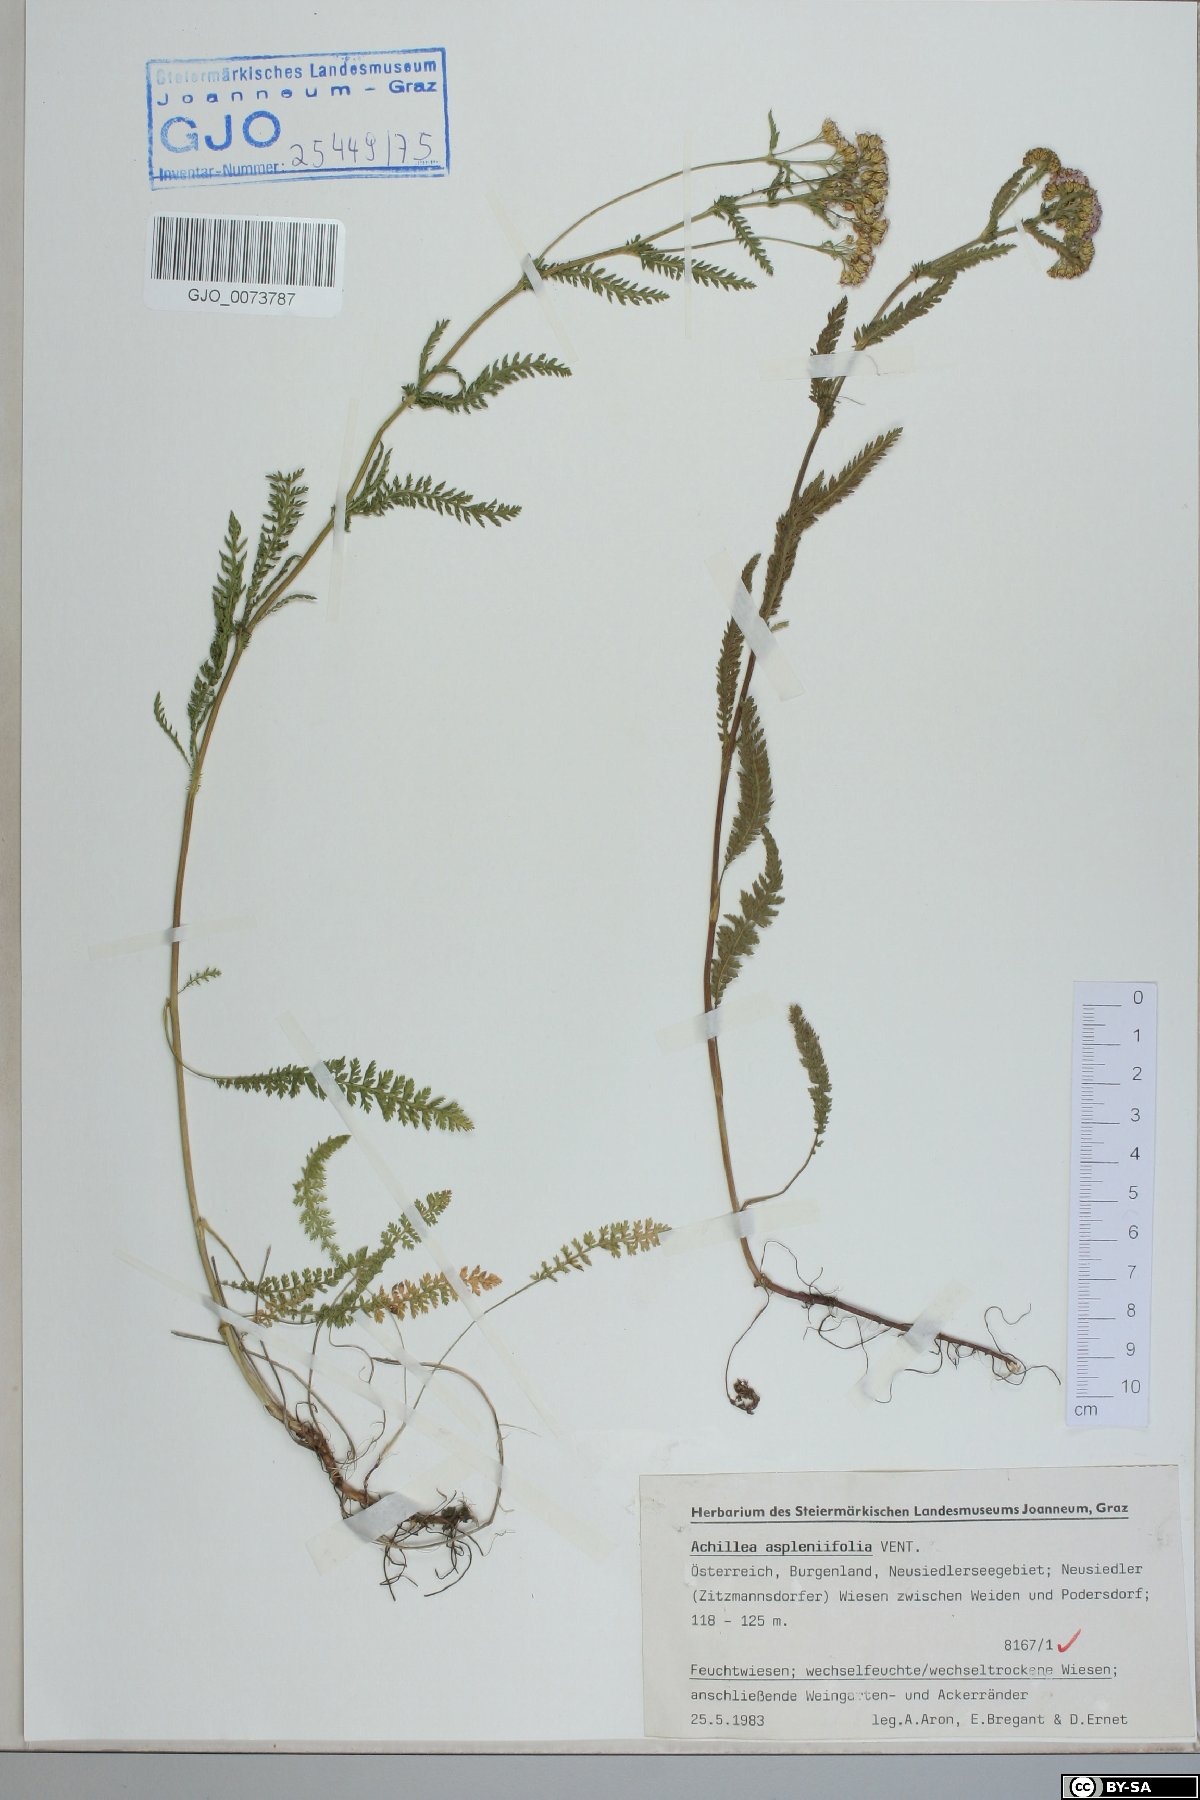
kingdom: Plantae
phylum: Tracheophyta
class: Magnoliopsida
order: Asterales
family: Asteraceae
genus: Achillea
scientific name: Achillea aspleniifolia
